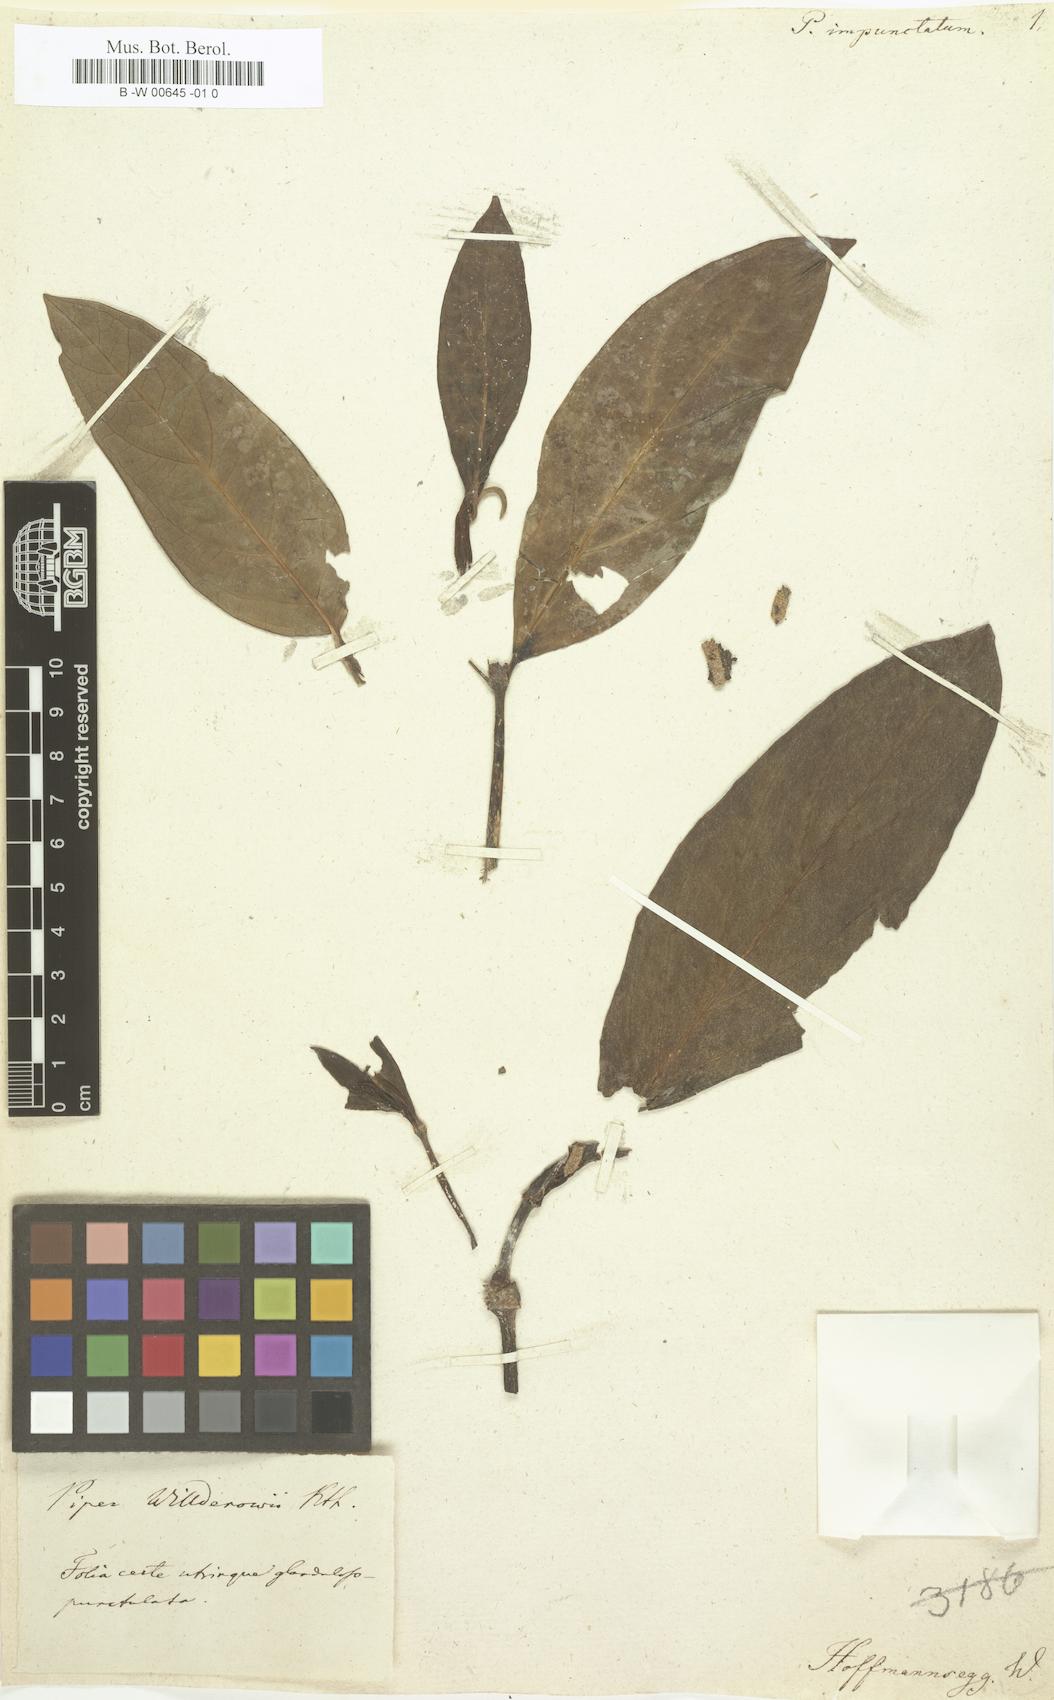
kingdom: Plantae
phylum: Tracheophyta
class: Magnoliopsida
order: Piperales
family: Piperaceae
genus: Piper
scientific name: Piper divaricatum
